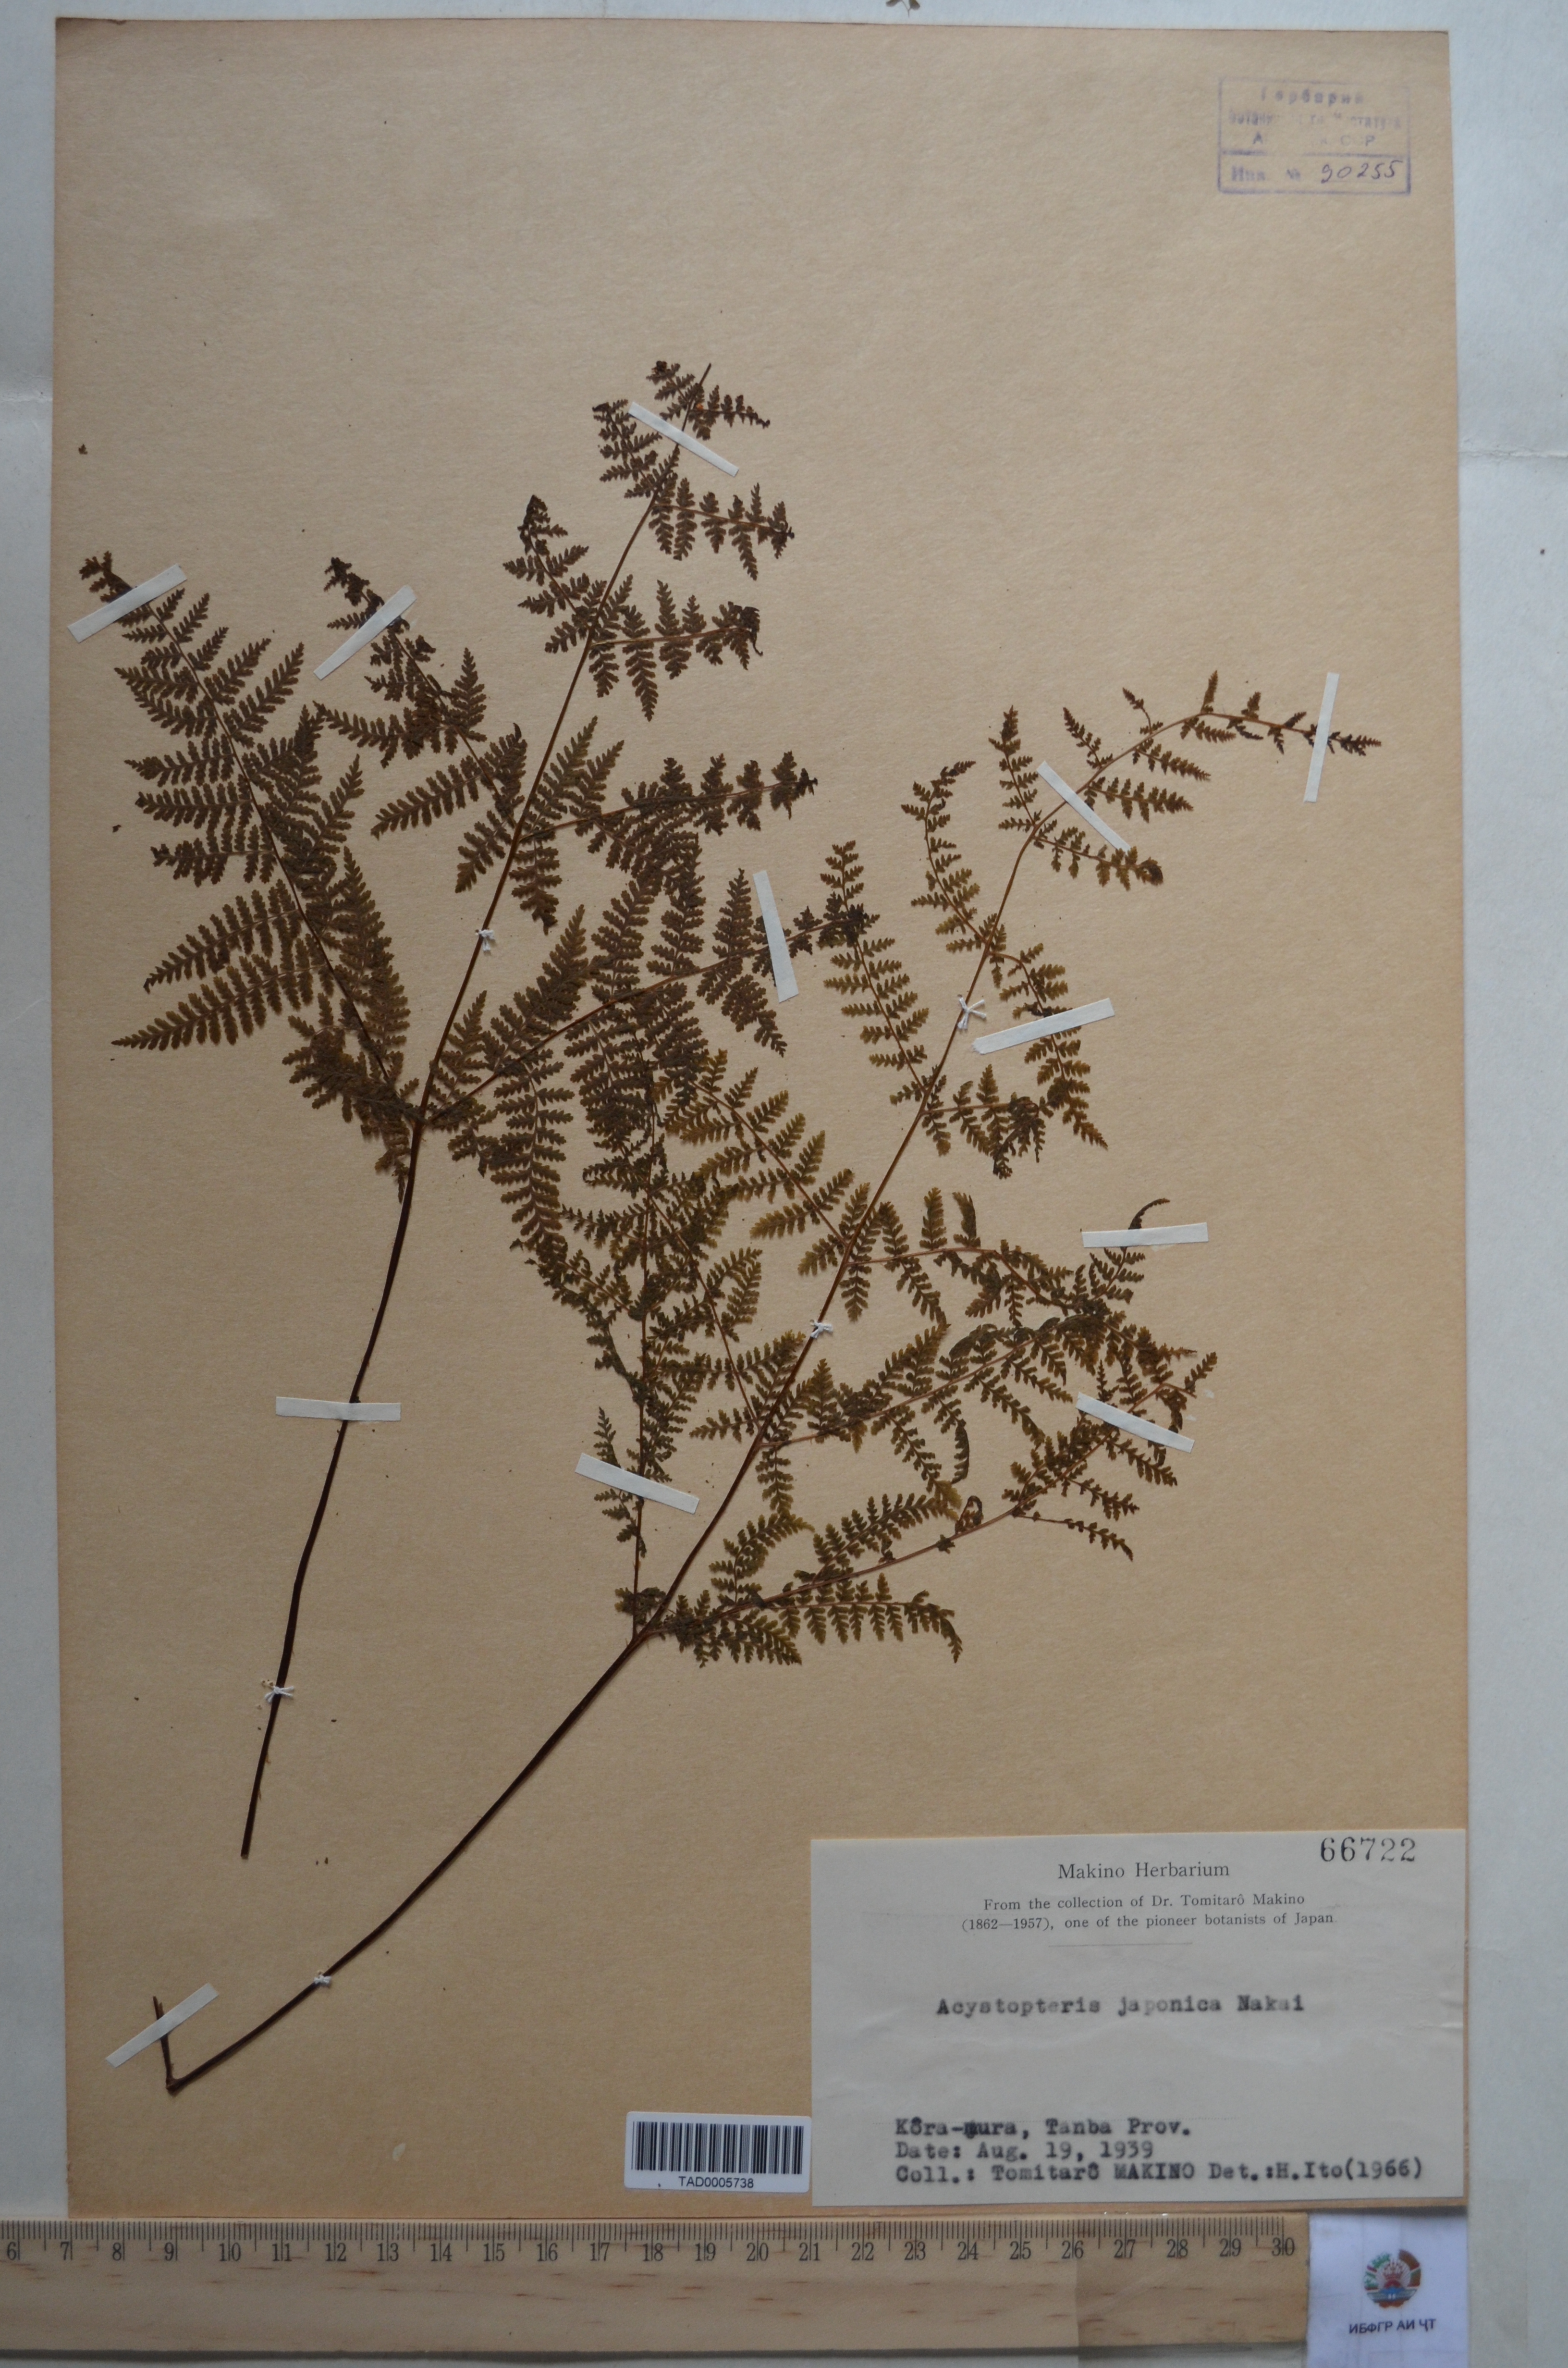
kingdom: Plantae
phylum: Tracheophyta
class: Polypodiopsida
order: Polypodiales
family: Cystopteridaceae
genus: Acystopteris
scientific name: Acystopteris japonica
